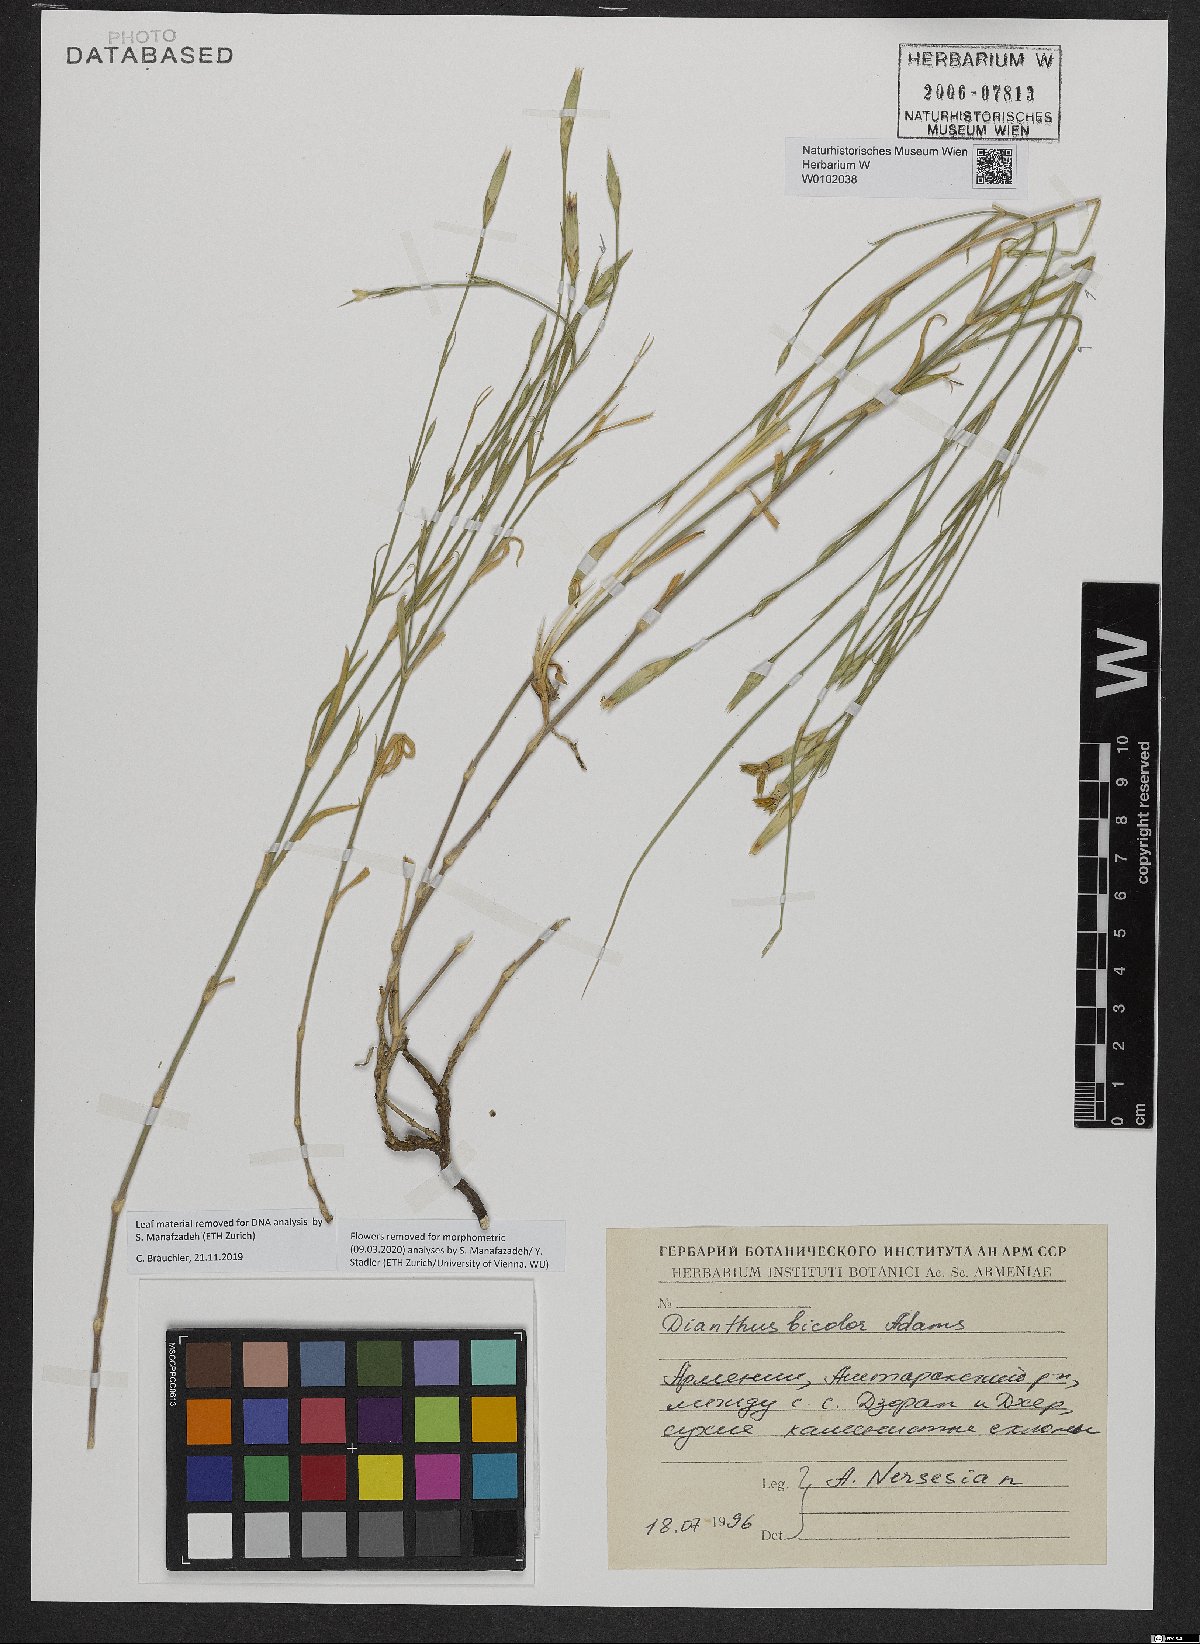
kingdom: Plantae
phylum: Tracheophyta
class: Magnoliopsida
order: Caryophyllales
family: Caryophyllaceae
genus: Dianthus
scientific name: Dianthus bicolor
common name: Bicolour pink
